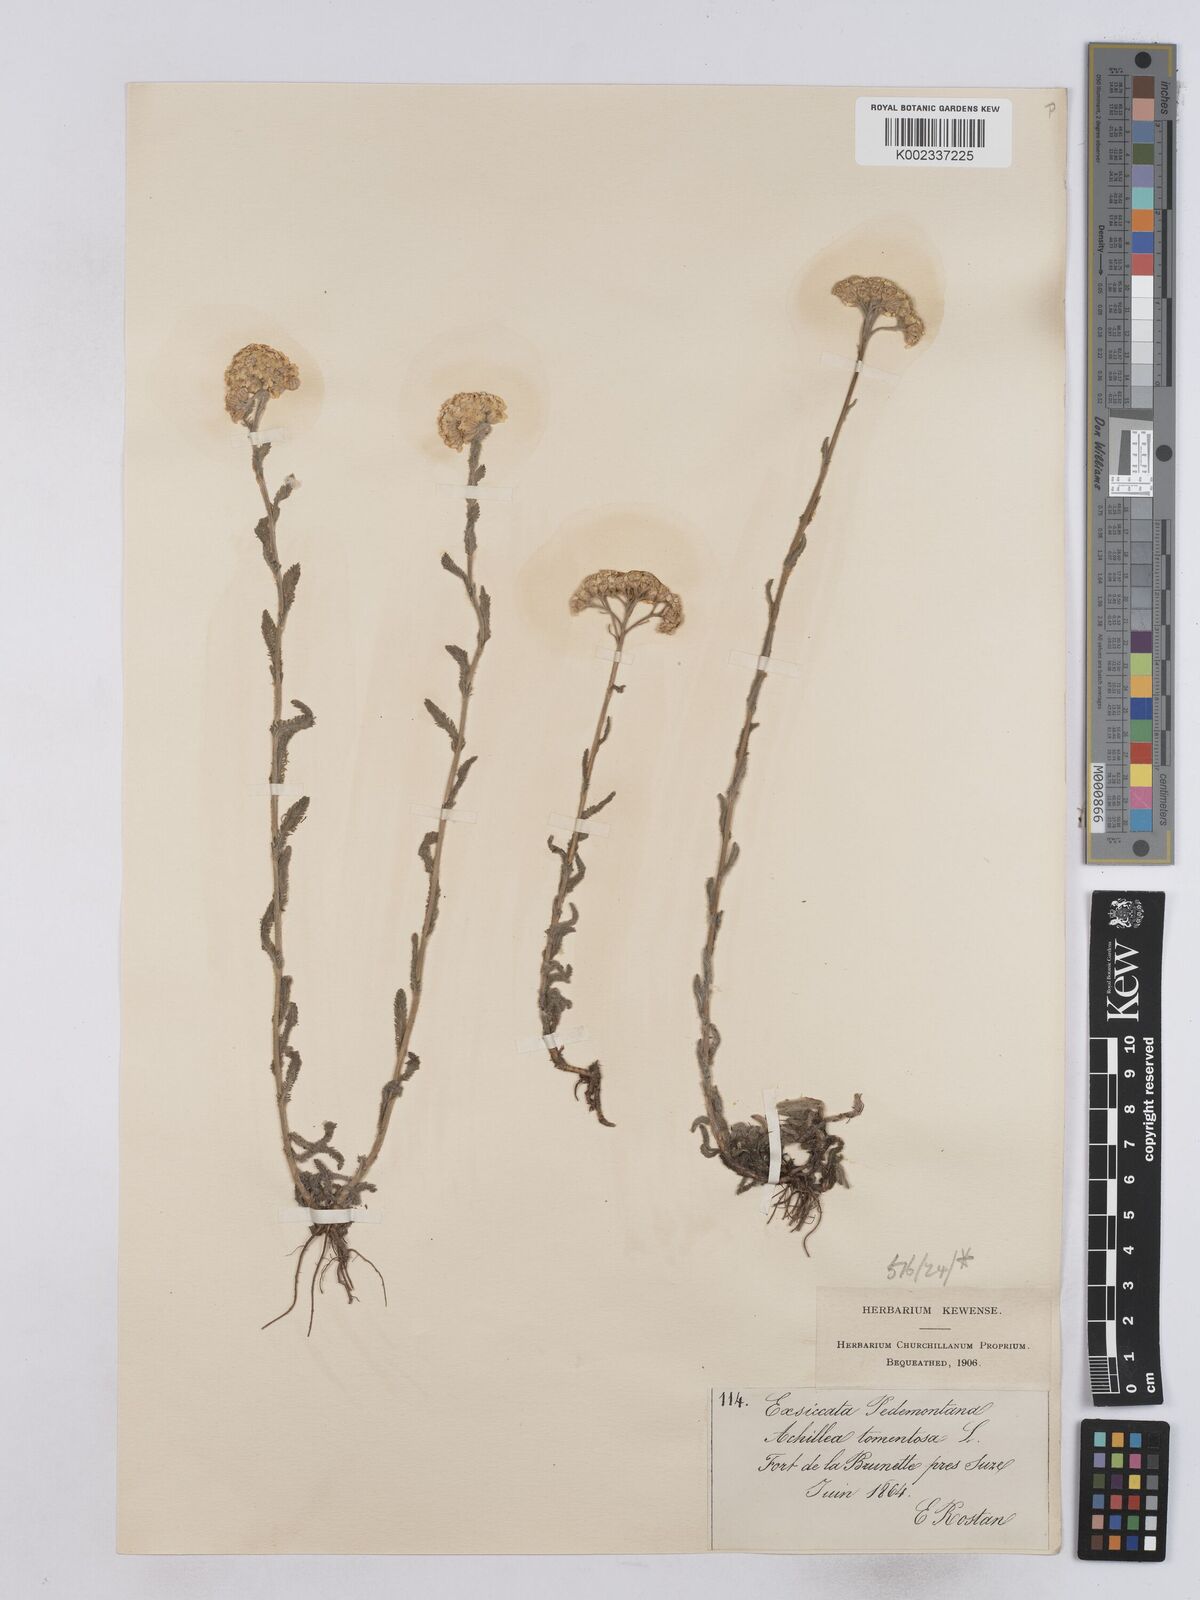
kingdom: Plantae
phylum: Tracheophyta
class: Magnoliopsida
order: Asterales
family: Asteraceae
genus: Achillea
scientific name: Achillea tomentosa
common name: Yellow milfoil
